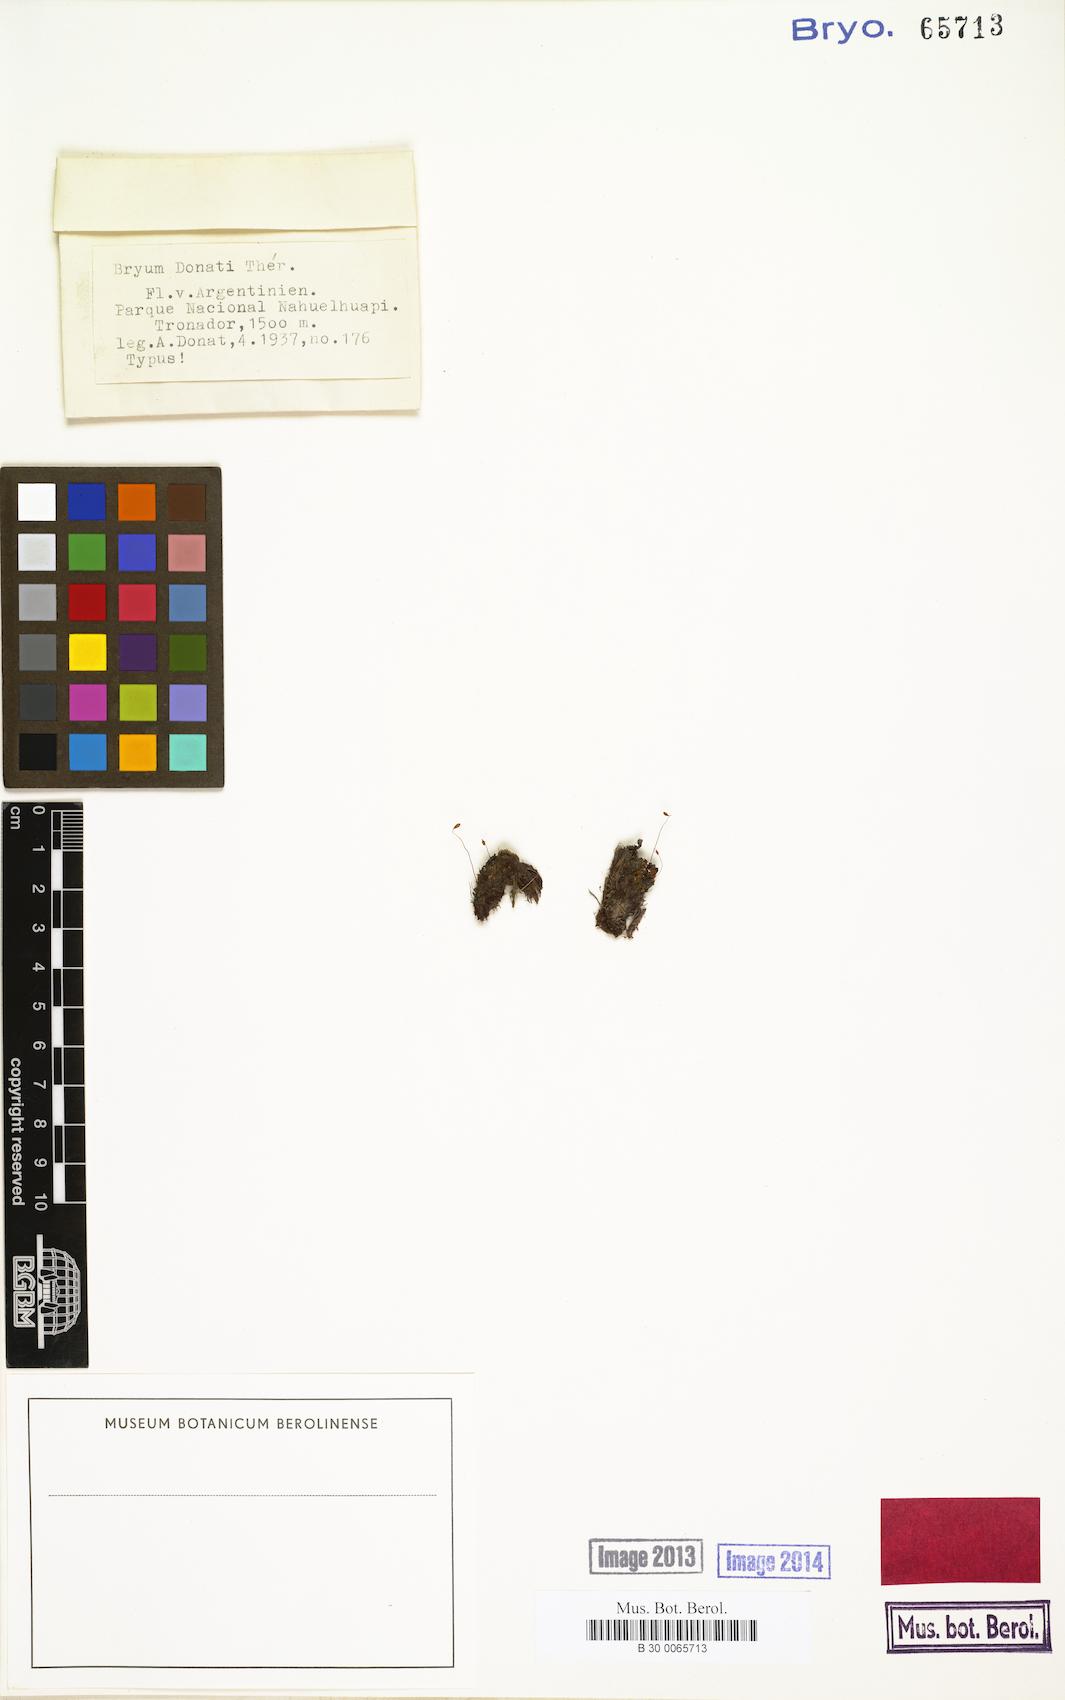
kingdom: Plantae
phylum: Bryophyta
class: Bryopsida
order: Bryales
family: Bryaceae
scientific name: Bryaceae
